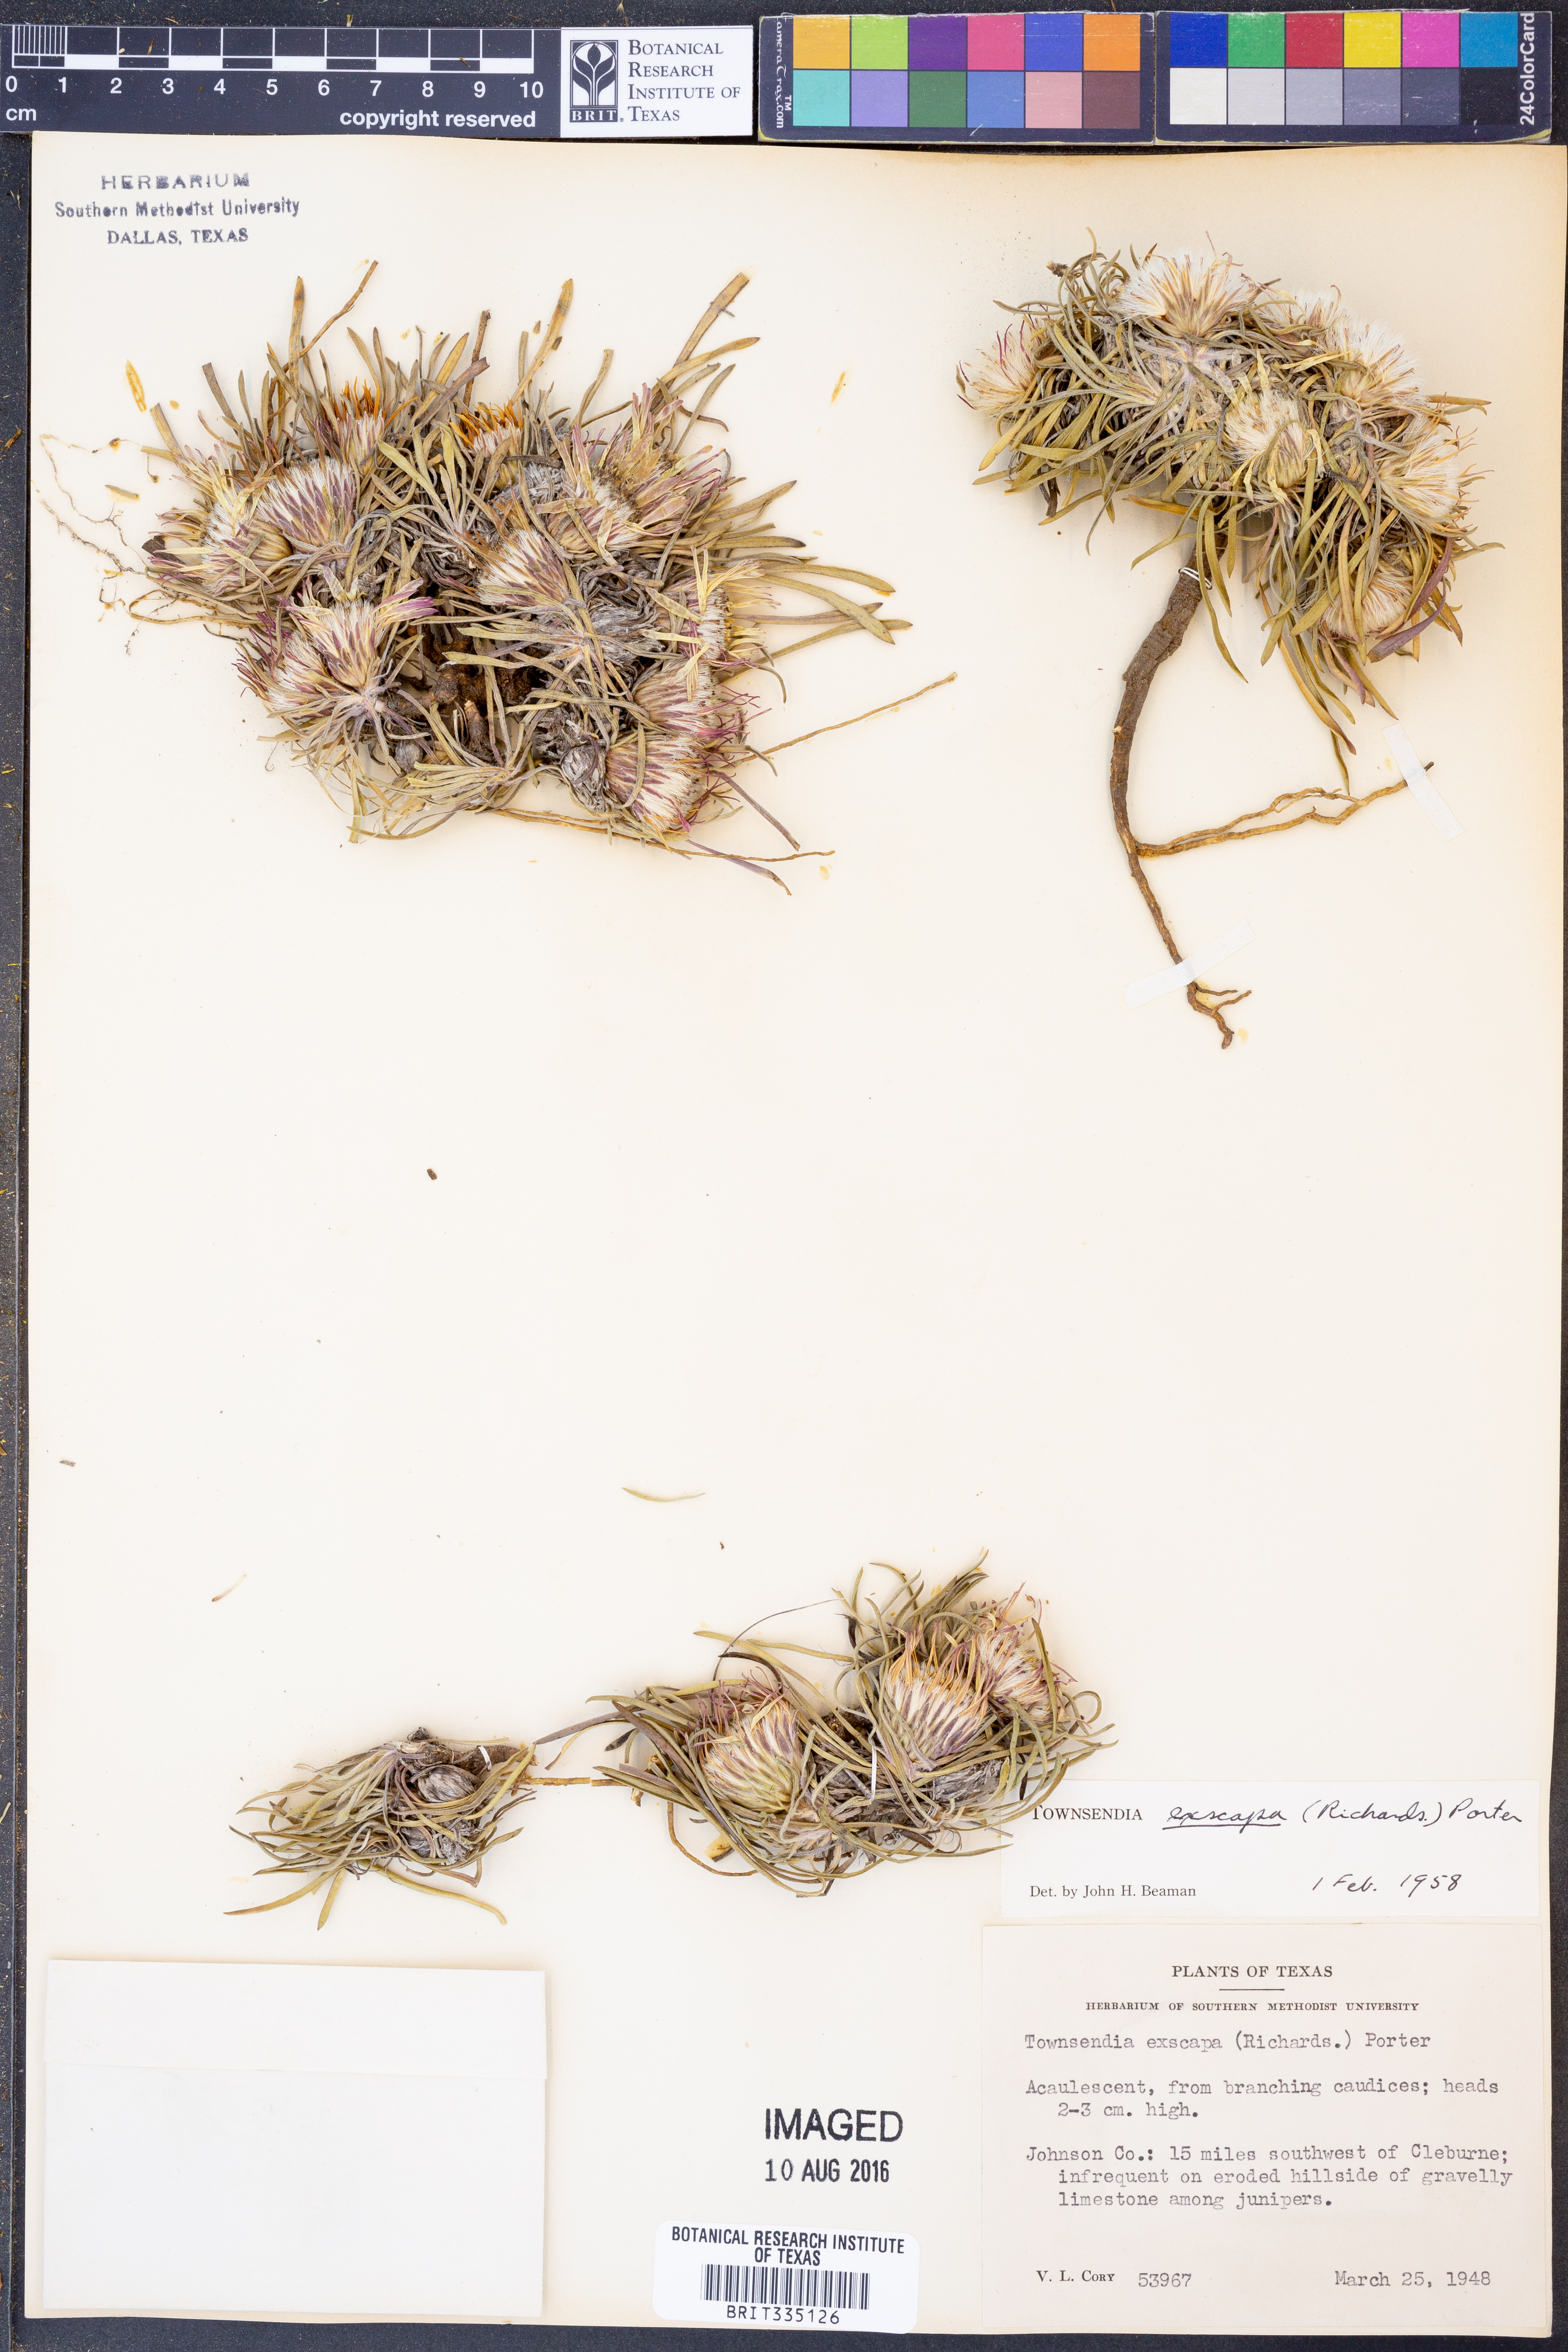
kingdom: Plantae
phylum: Tracheophyta
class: Magnoliopsida
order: Asterales
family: Asteraceae
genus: Townsendia
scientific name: Townsendia exscapa
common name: Dwarf townsendia
